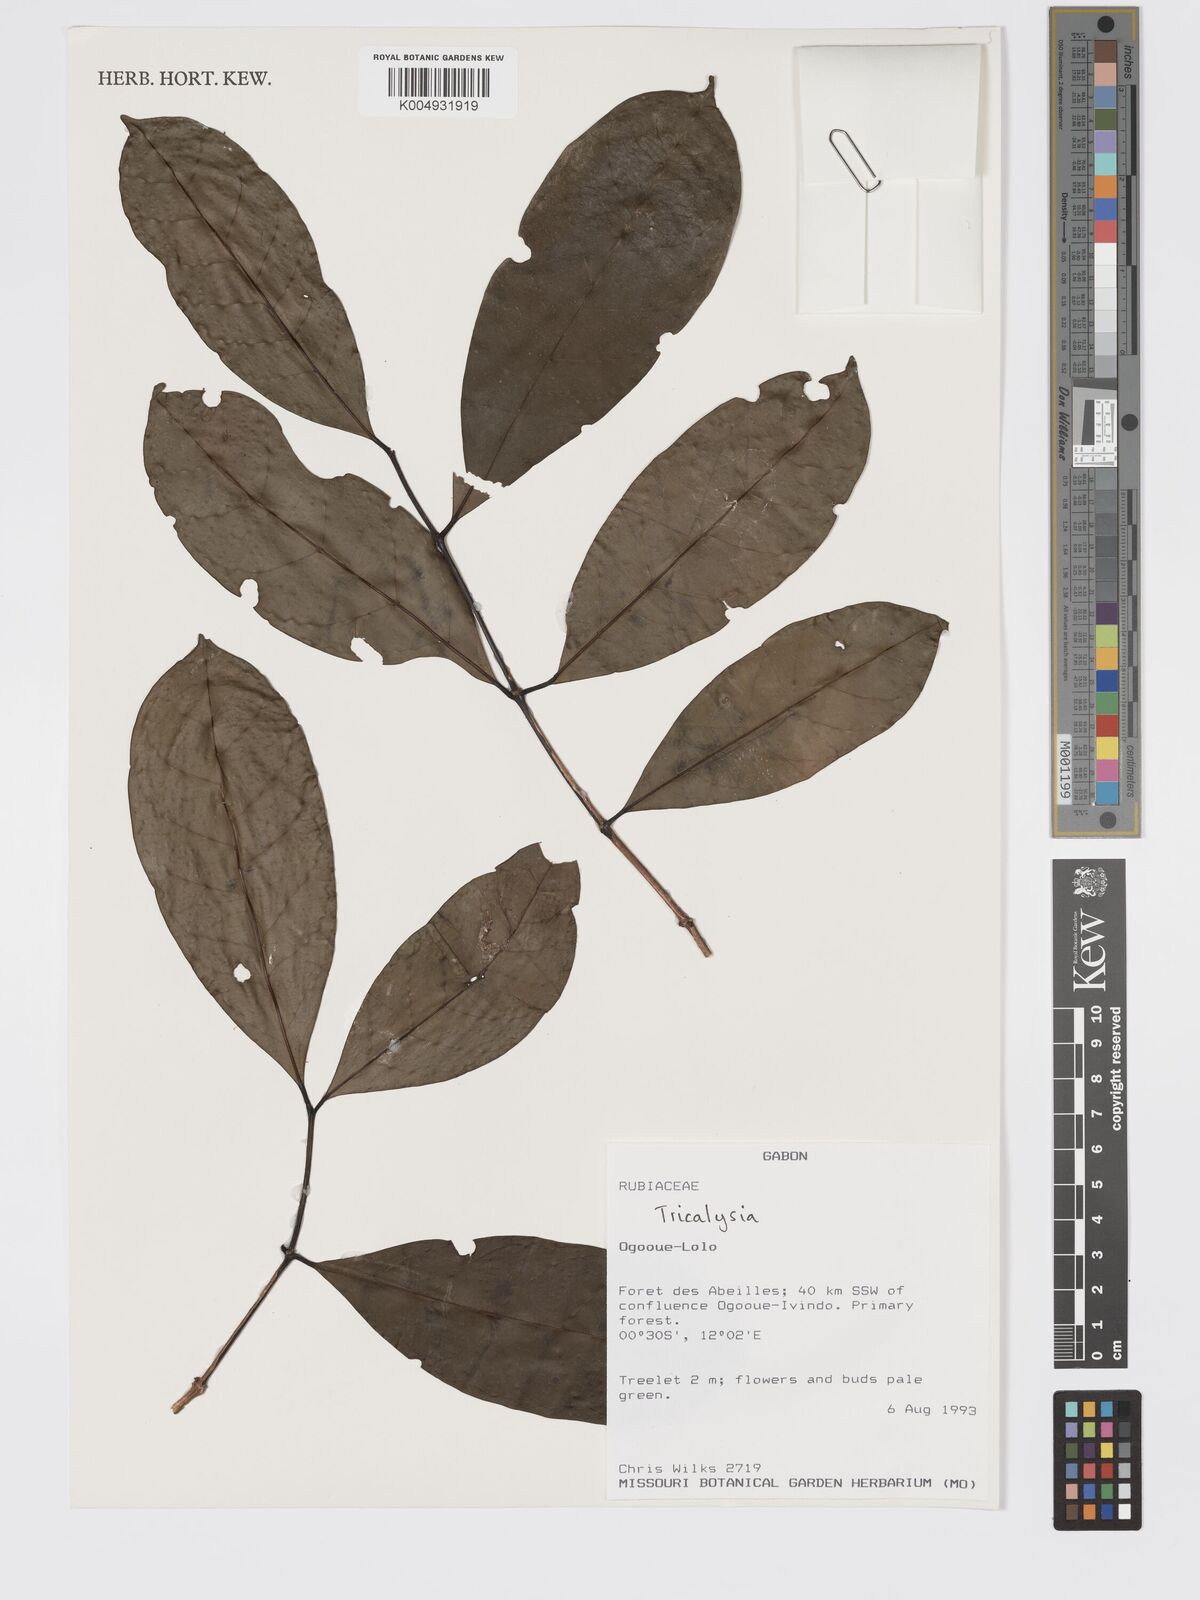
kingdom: Plantae
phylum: Tracheophyta
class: Magnoliopsida
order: Gentianales
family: Rubiaceae
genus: Tricalysia
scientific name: Tricalysia
